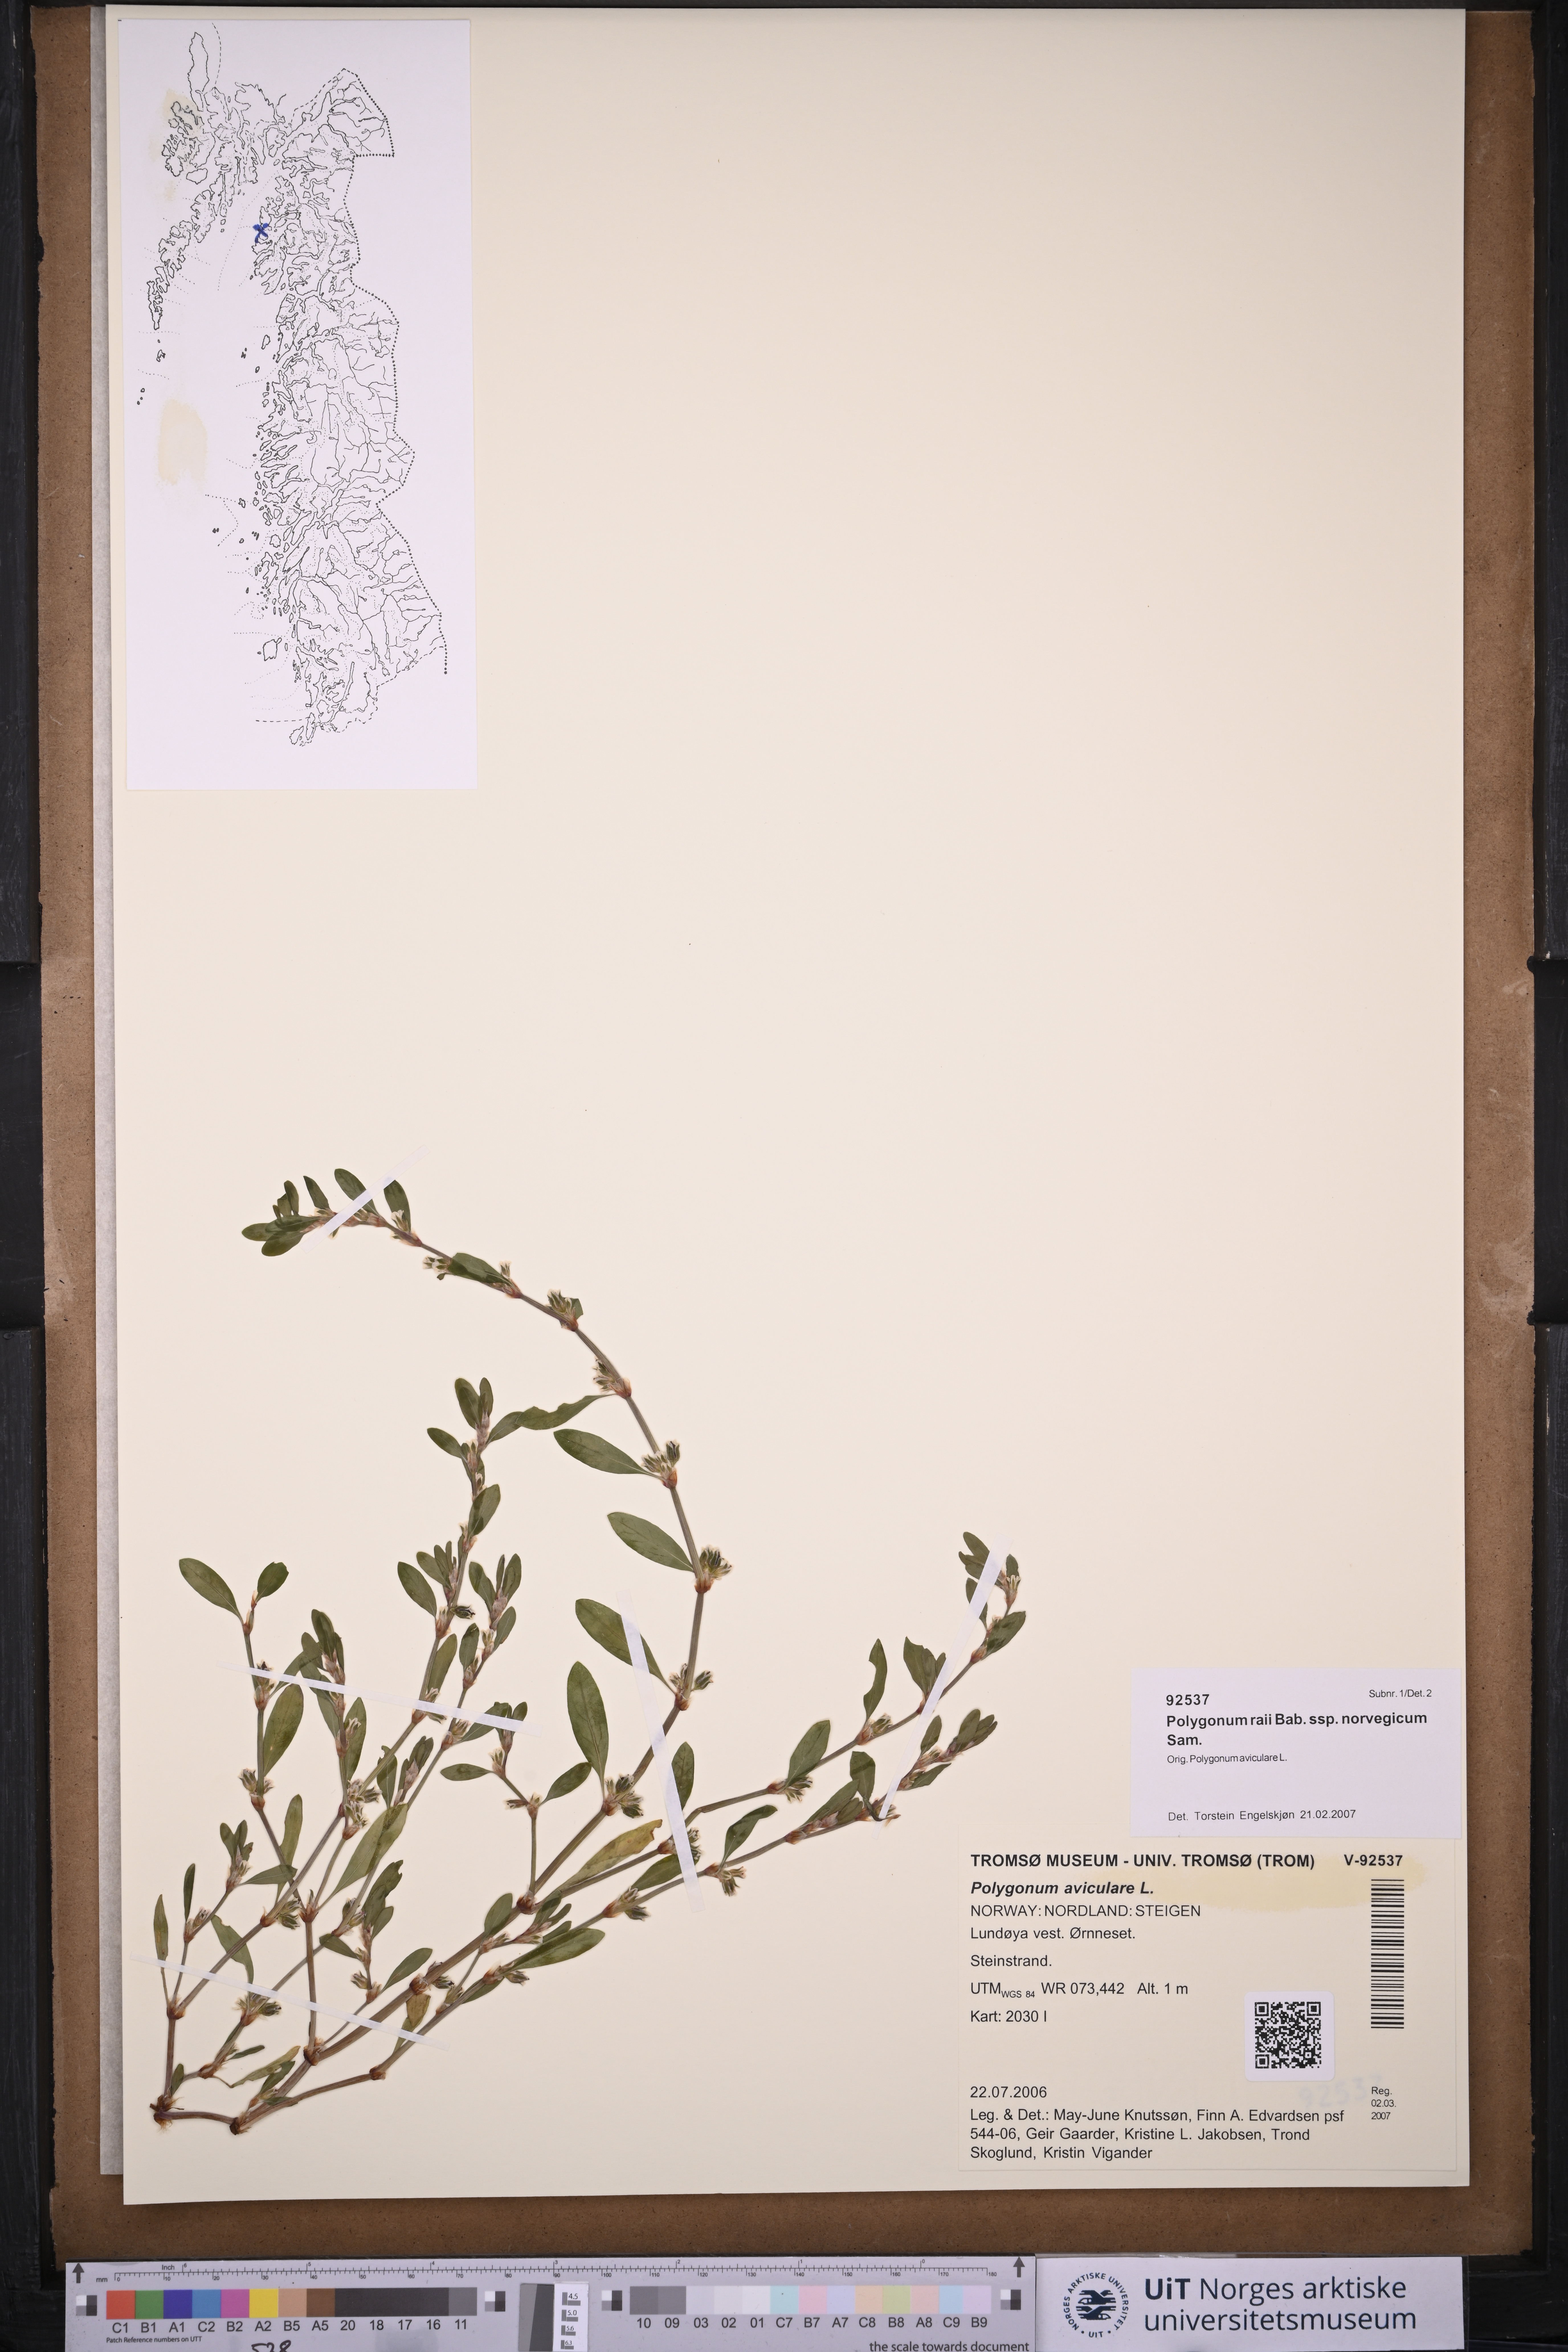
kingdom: Plantae
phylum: Tracheophyta
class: Magnoliopsida
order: Caryophyllales
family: Polygonaceae
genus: Polygonum
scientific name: Polygonum norvegicum
